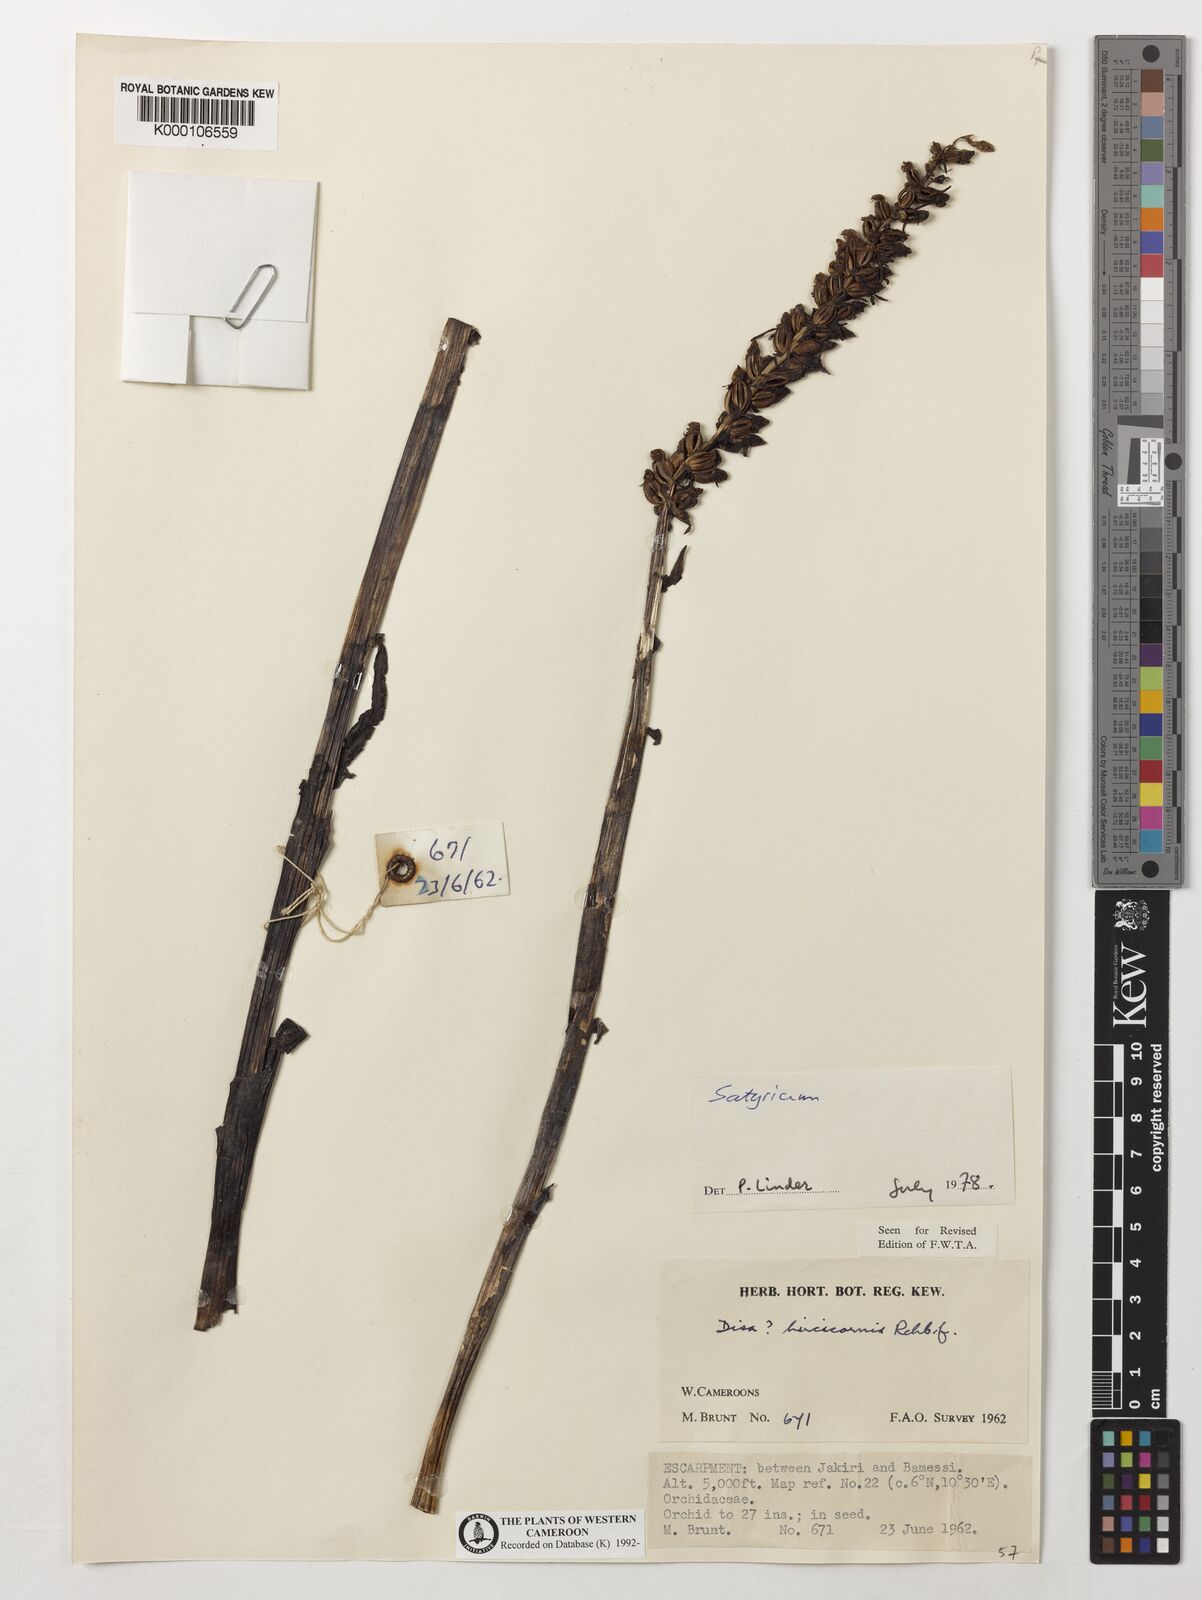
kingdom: Plantae
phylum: Tracheophyta
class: Liliopsida
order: Asparagales
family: Orchidaceae
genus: Satyrium
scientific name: Satyrium
